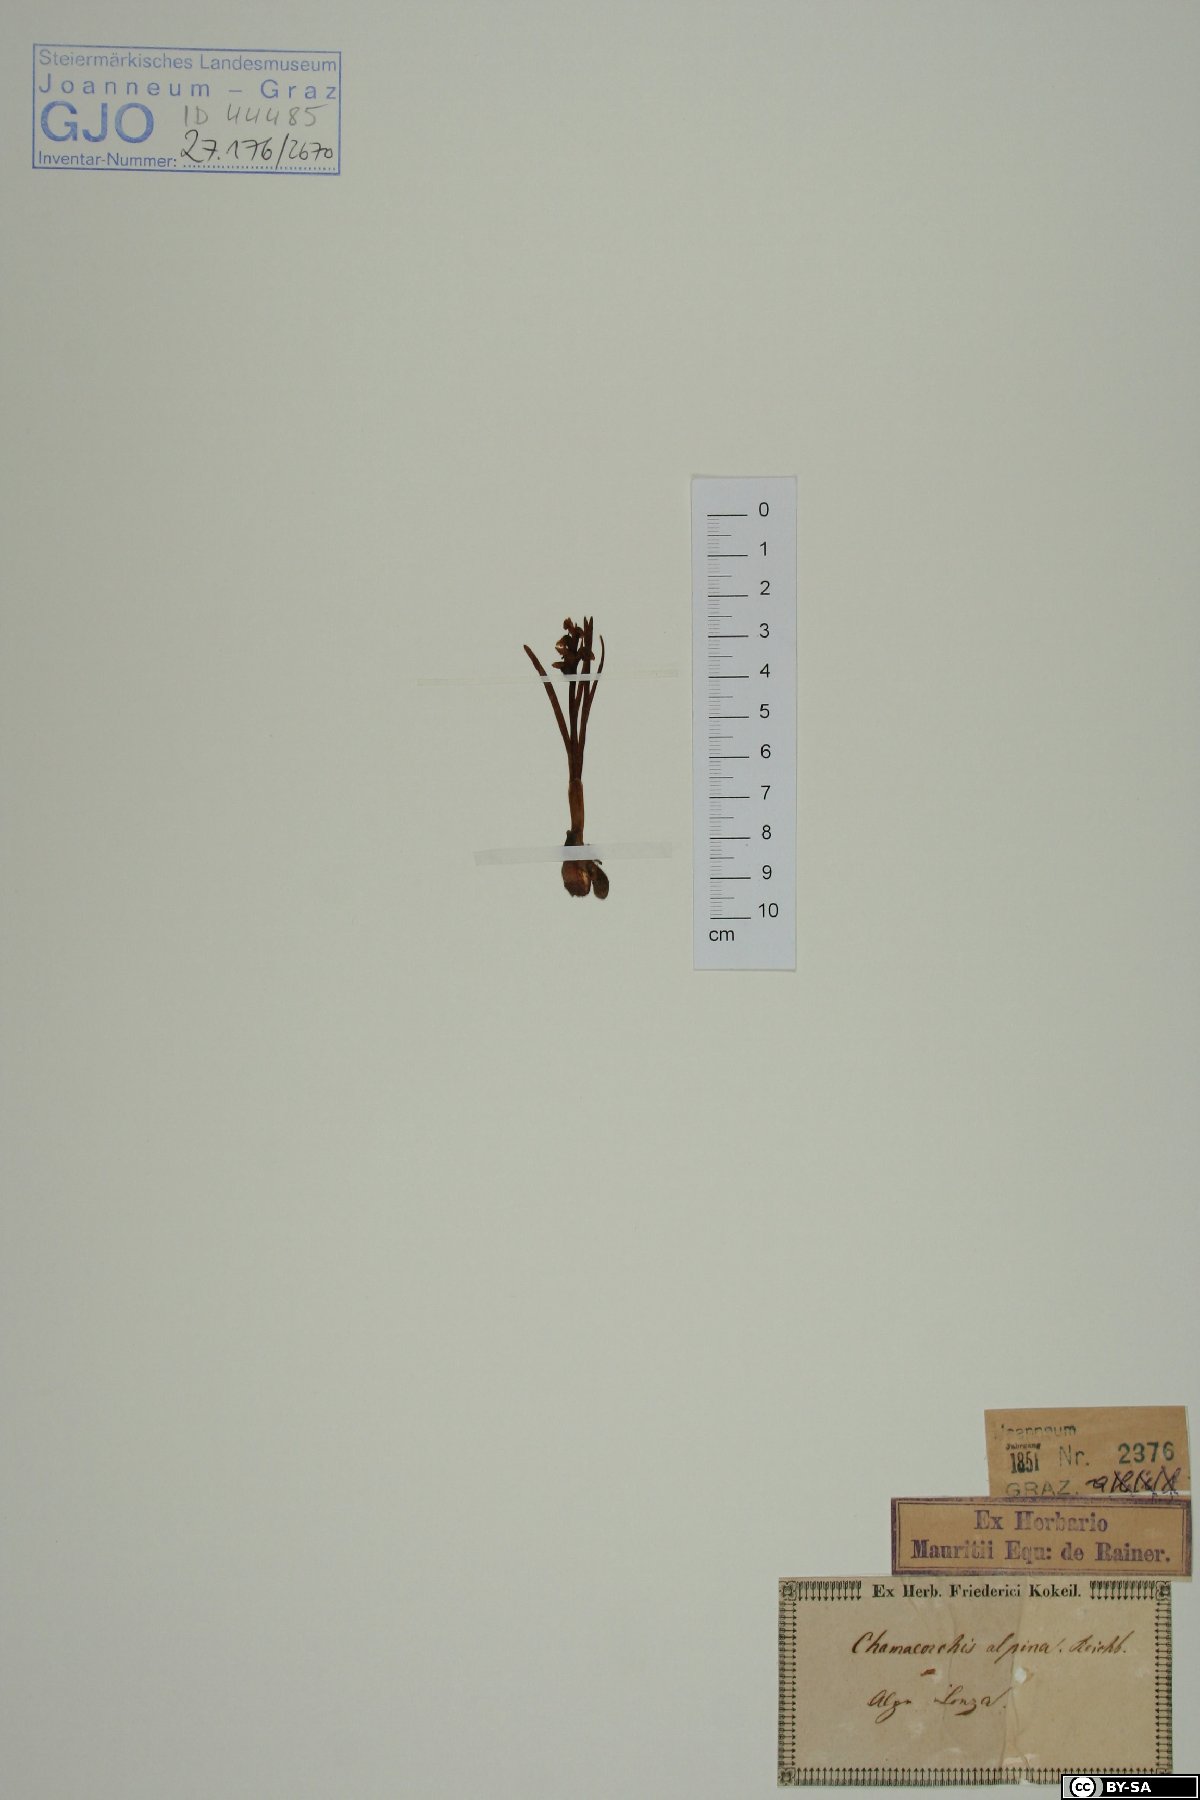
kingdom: Plantae
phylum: Tracheophyta
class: Liliopsida
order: Asparagales
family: Orchidaceae
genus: Chamorchis
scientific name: Chamorchis alpina
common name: Alpine chamorchis
